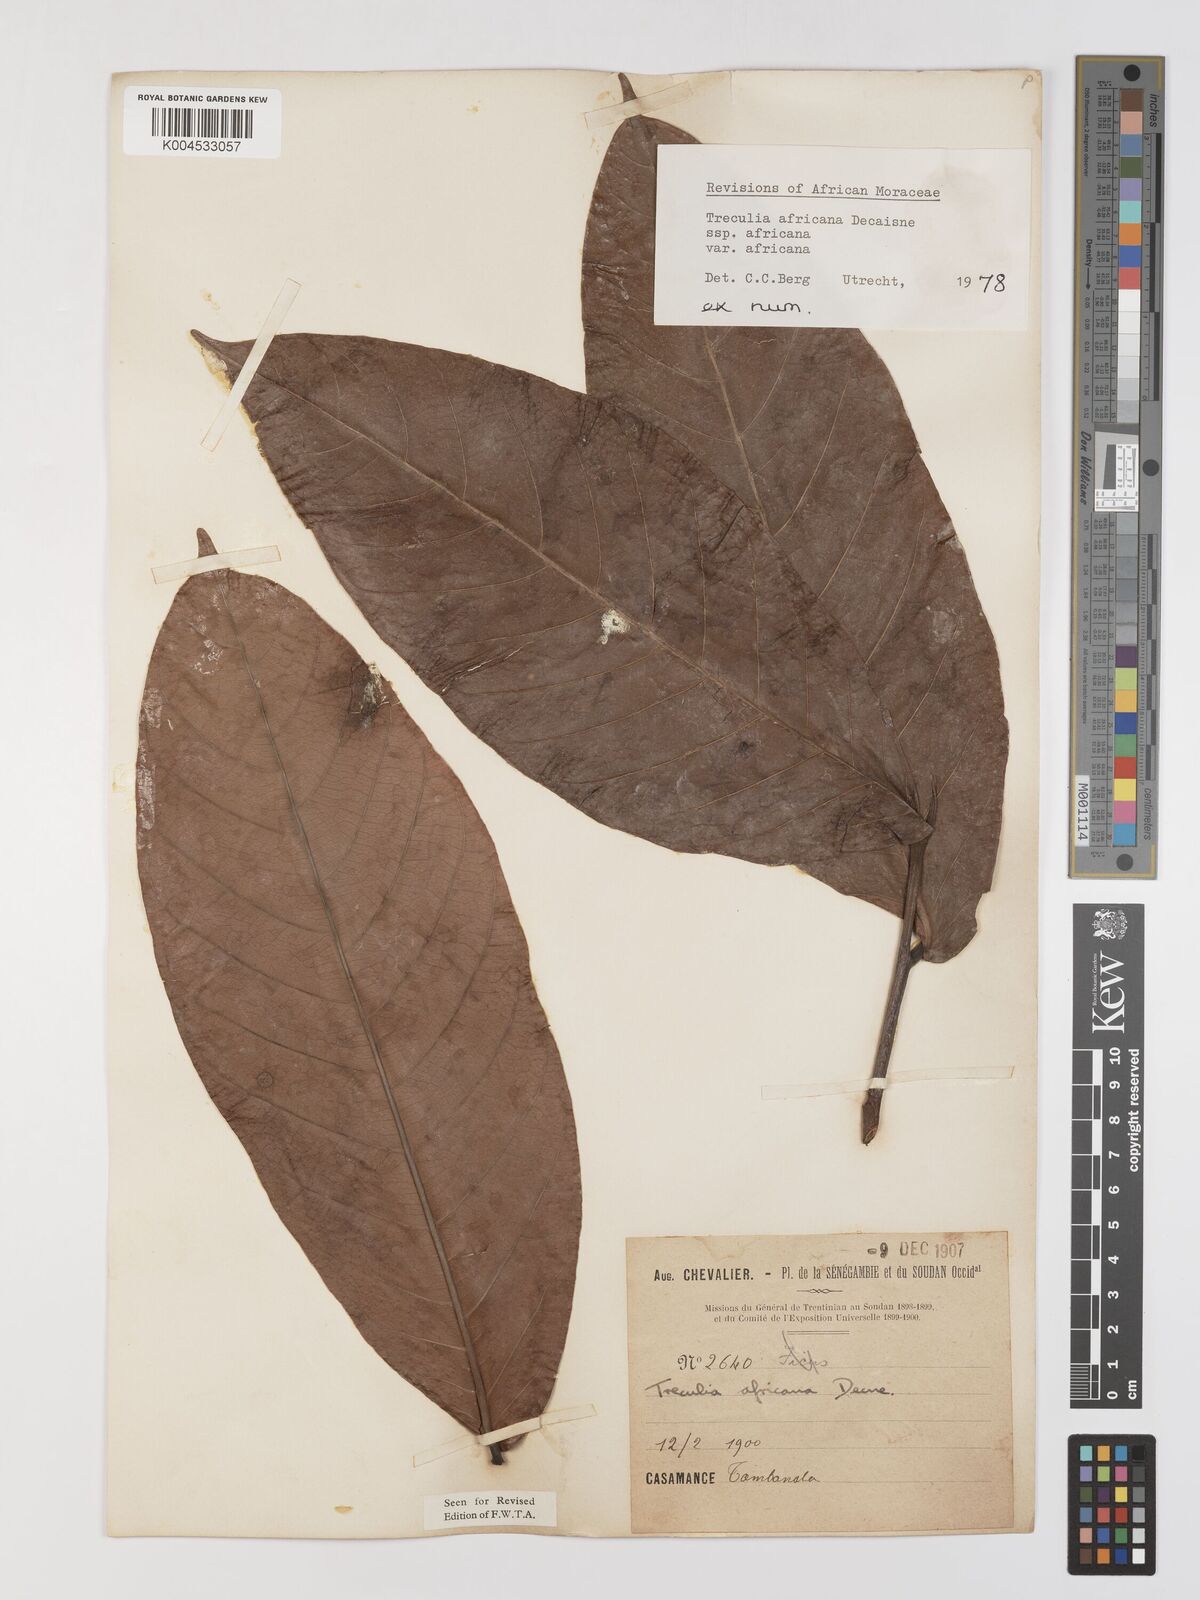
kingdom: Plantae
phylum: Tracheophyta
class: Magnoliopsida
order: Rosales
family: Moraceae
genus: Treculia
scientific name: Treculia africana
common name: African breadfruit
